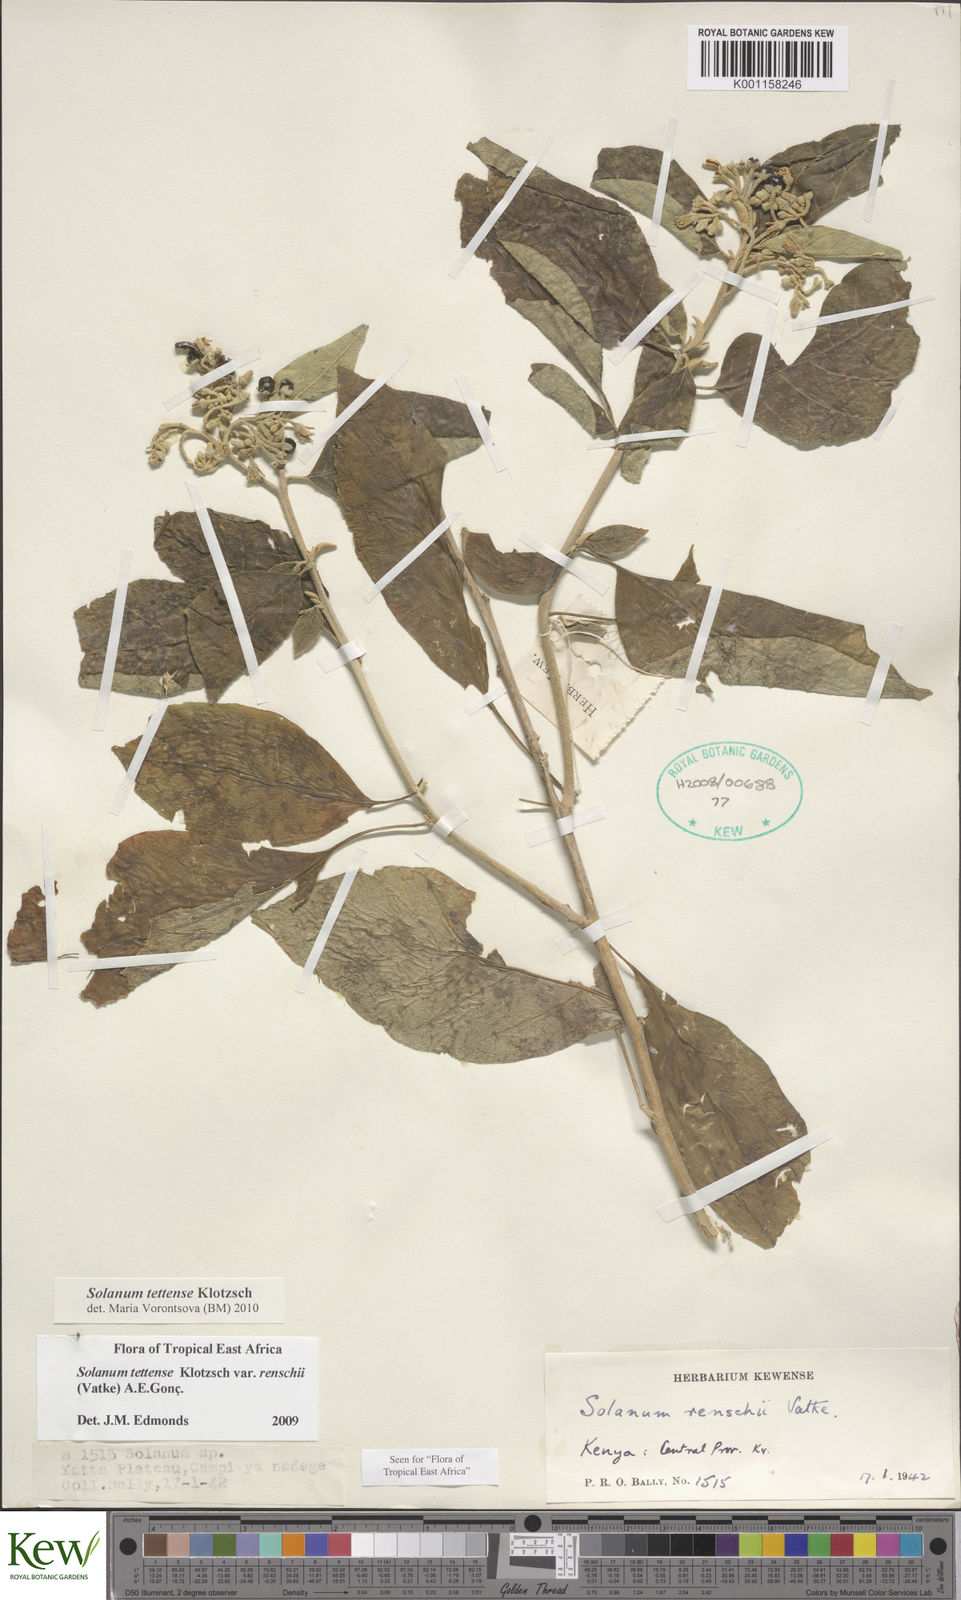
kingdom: Plantae
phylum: Tracheophyta
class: Magnoliopsida
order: Solanales
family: Solanaceae
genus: Solanum
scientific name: Solanum tettense
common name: Mozambique bitter apple
